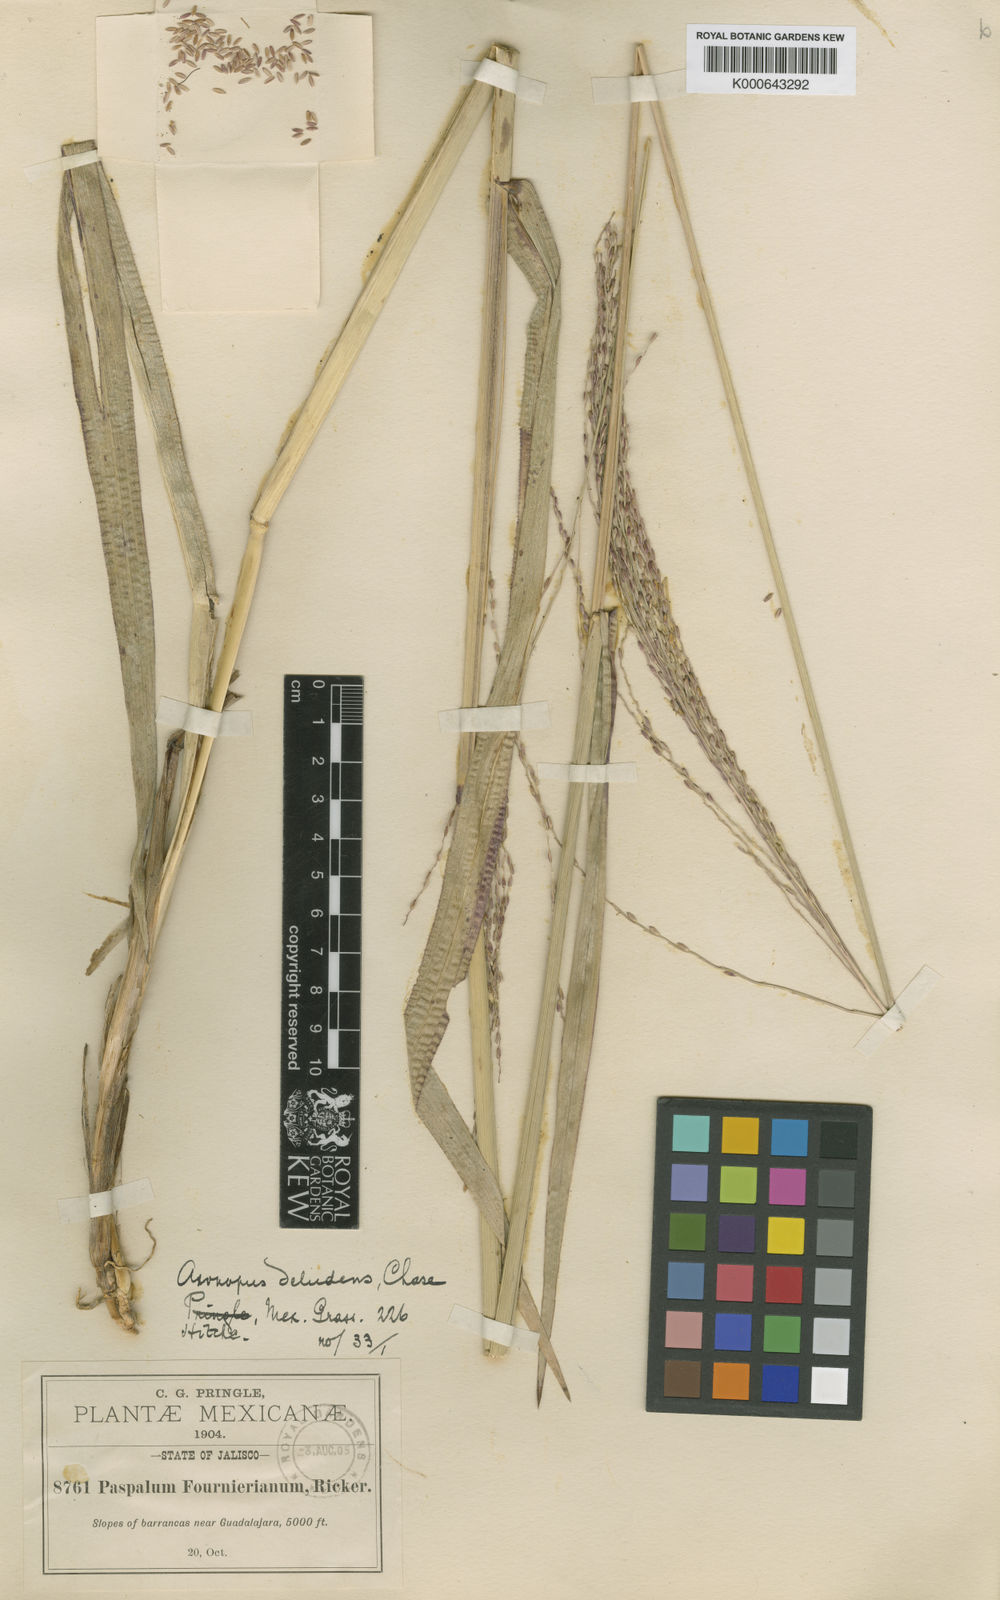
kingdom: Plantae
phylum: Tracheophyta
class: Liliopsida
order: Poales
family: Poaceae
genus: Axonopus
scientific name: Axonopus scoparius
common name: Imperial grass
